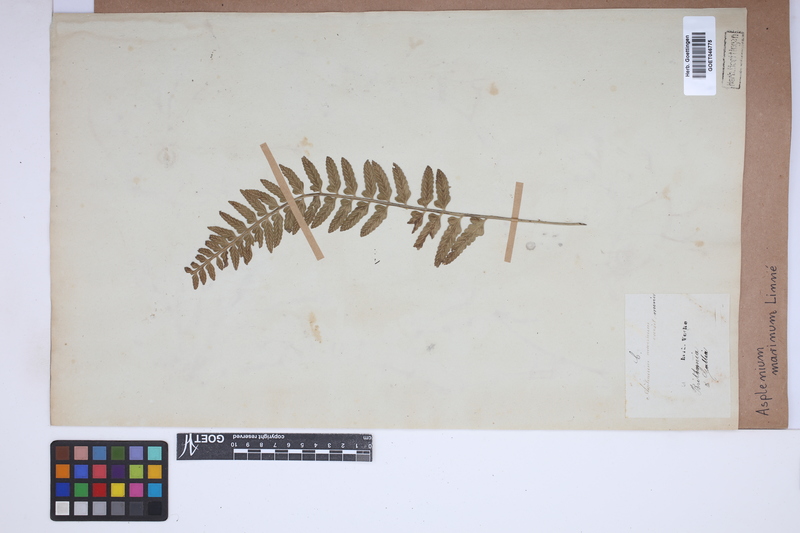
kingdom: Plantae
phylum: Tracheophyta
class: Polypodiopsida
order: Polypodiales
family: Aspleniaceae
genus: Asplenium
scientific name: Asplenium marinum
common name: Sea spleenwort
